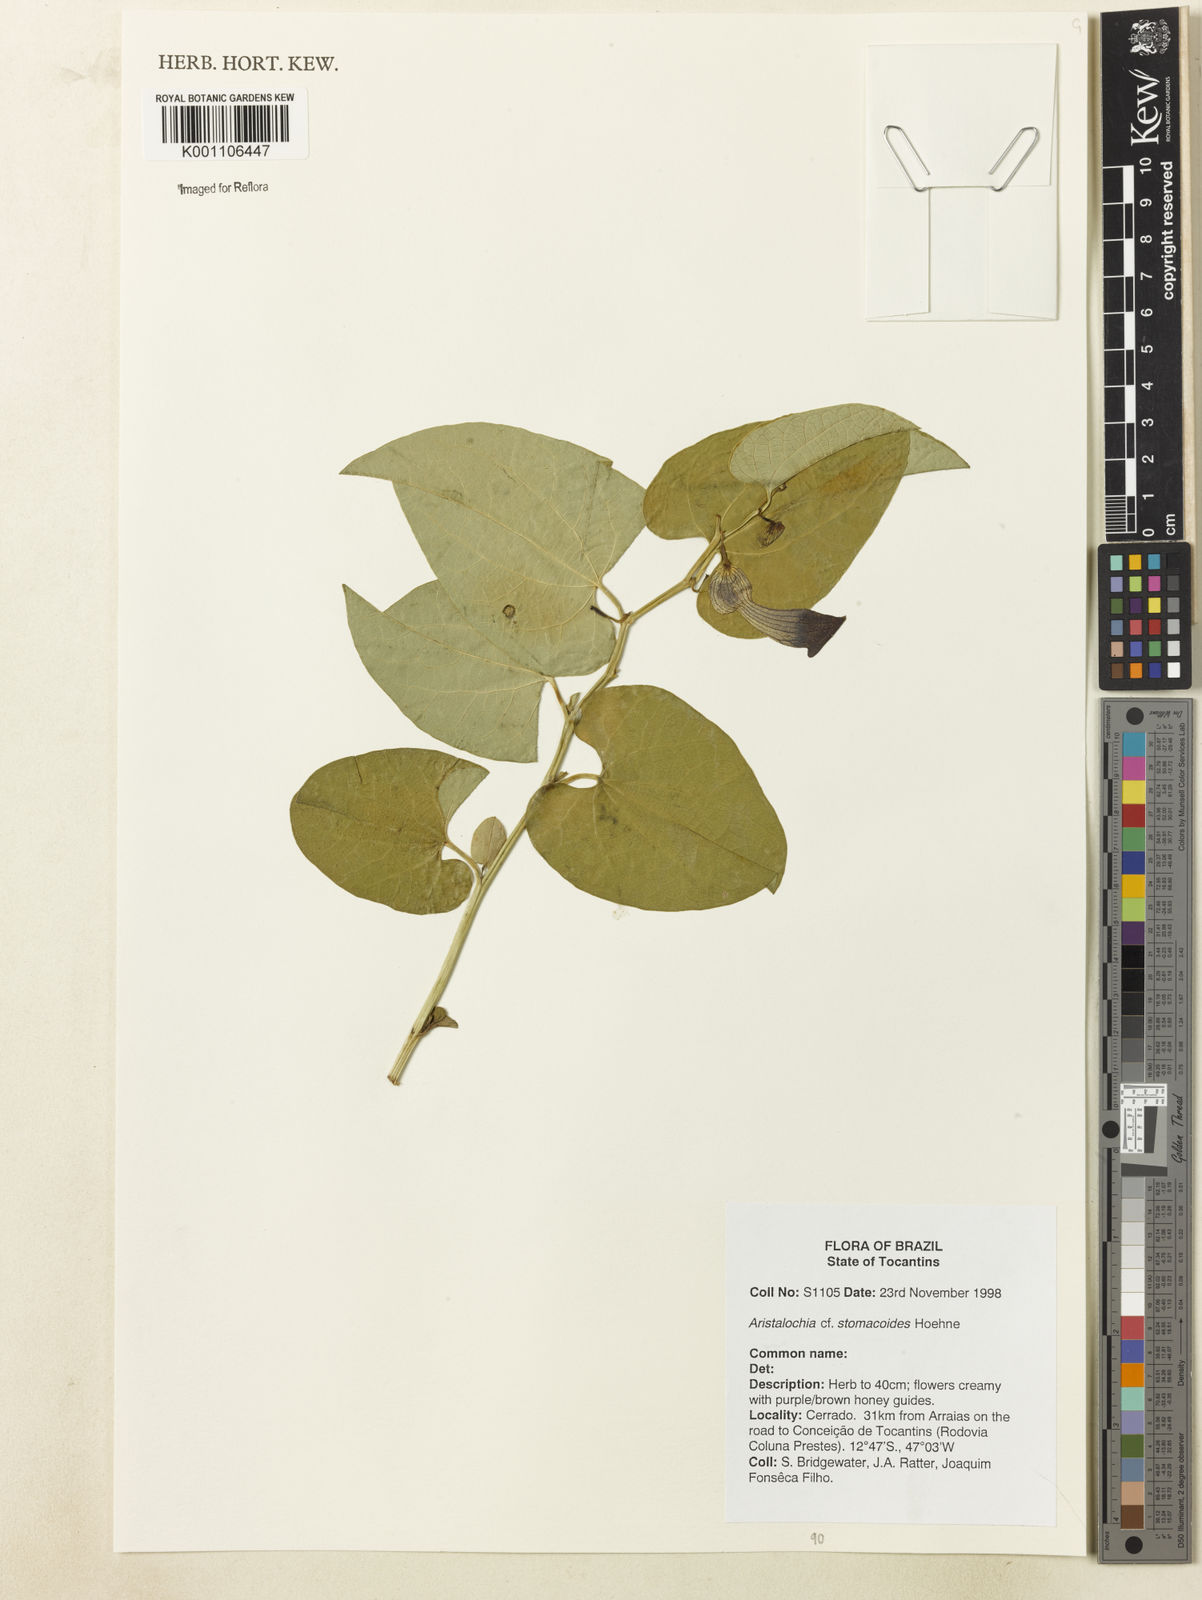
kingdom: Plantae
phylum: Tracheophyta
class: Magnoliopsida
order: Piperales
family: Aristolochiaceae
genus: Aristolochia
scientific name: Aristolochia stomachoidis
